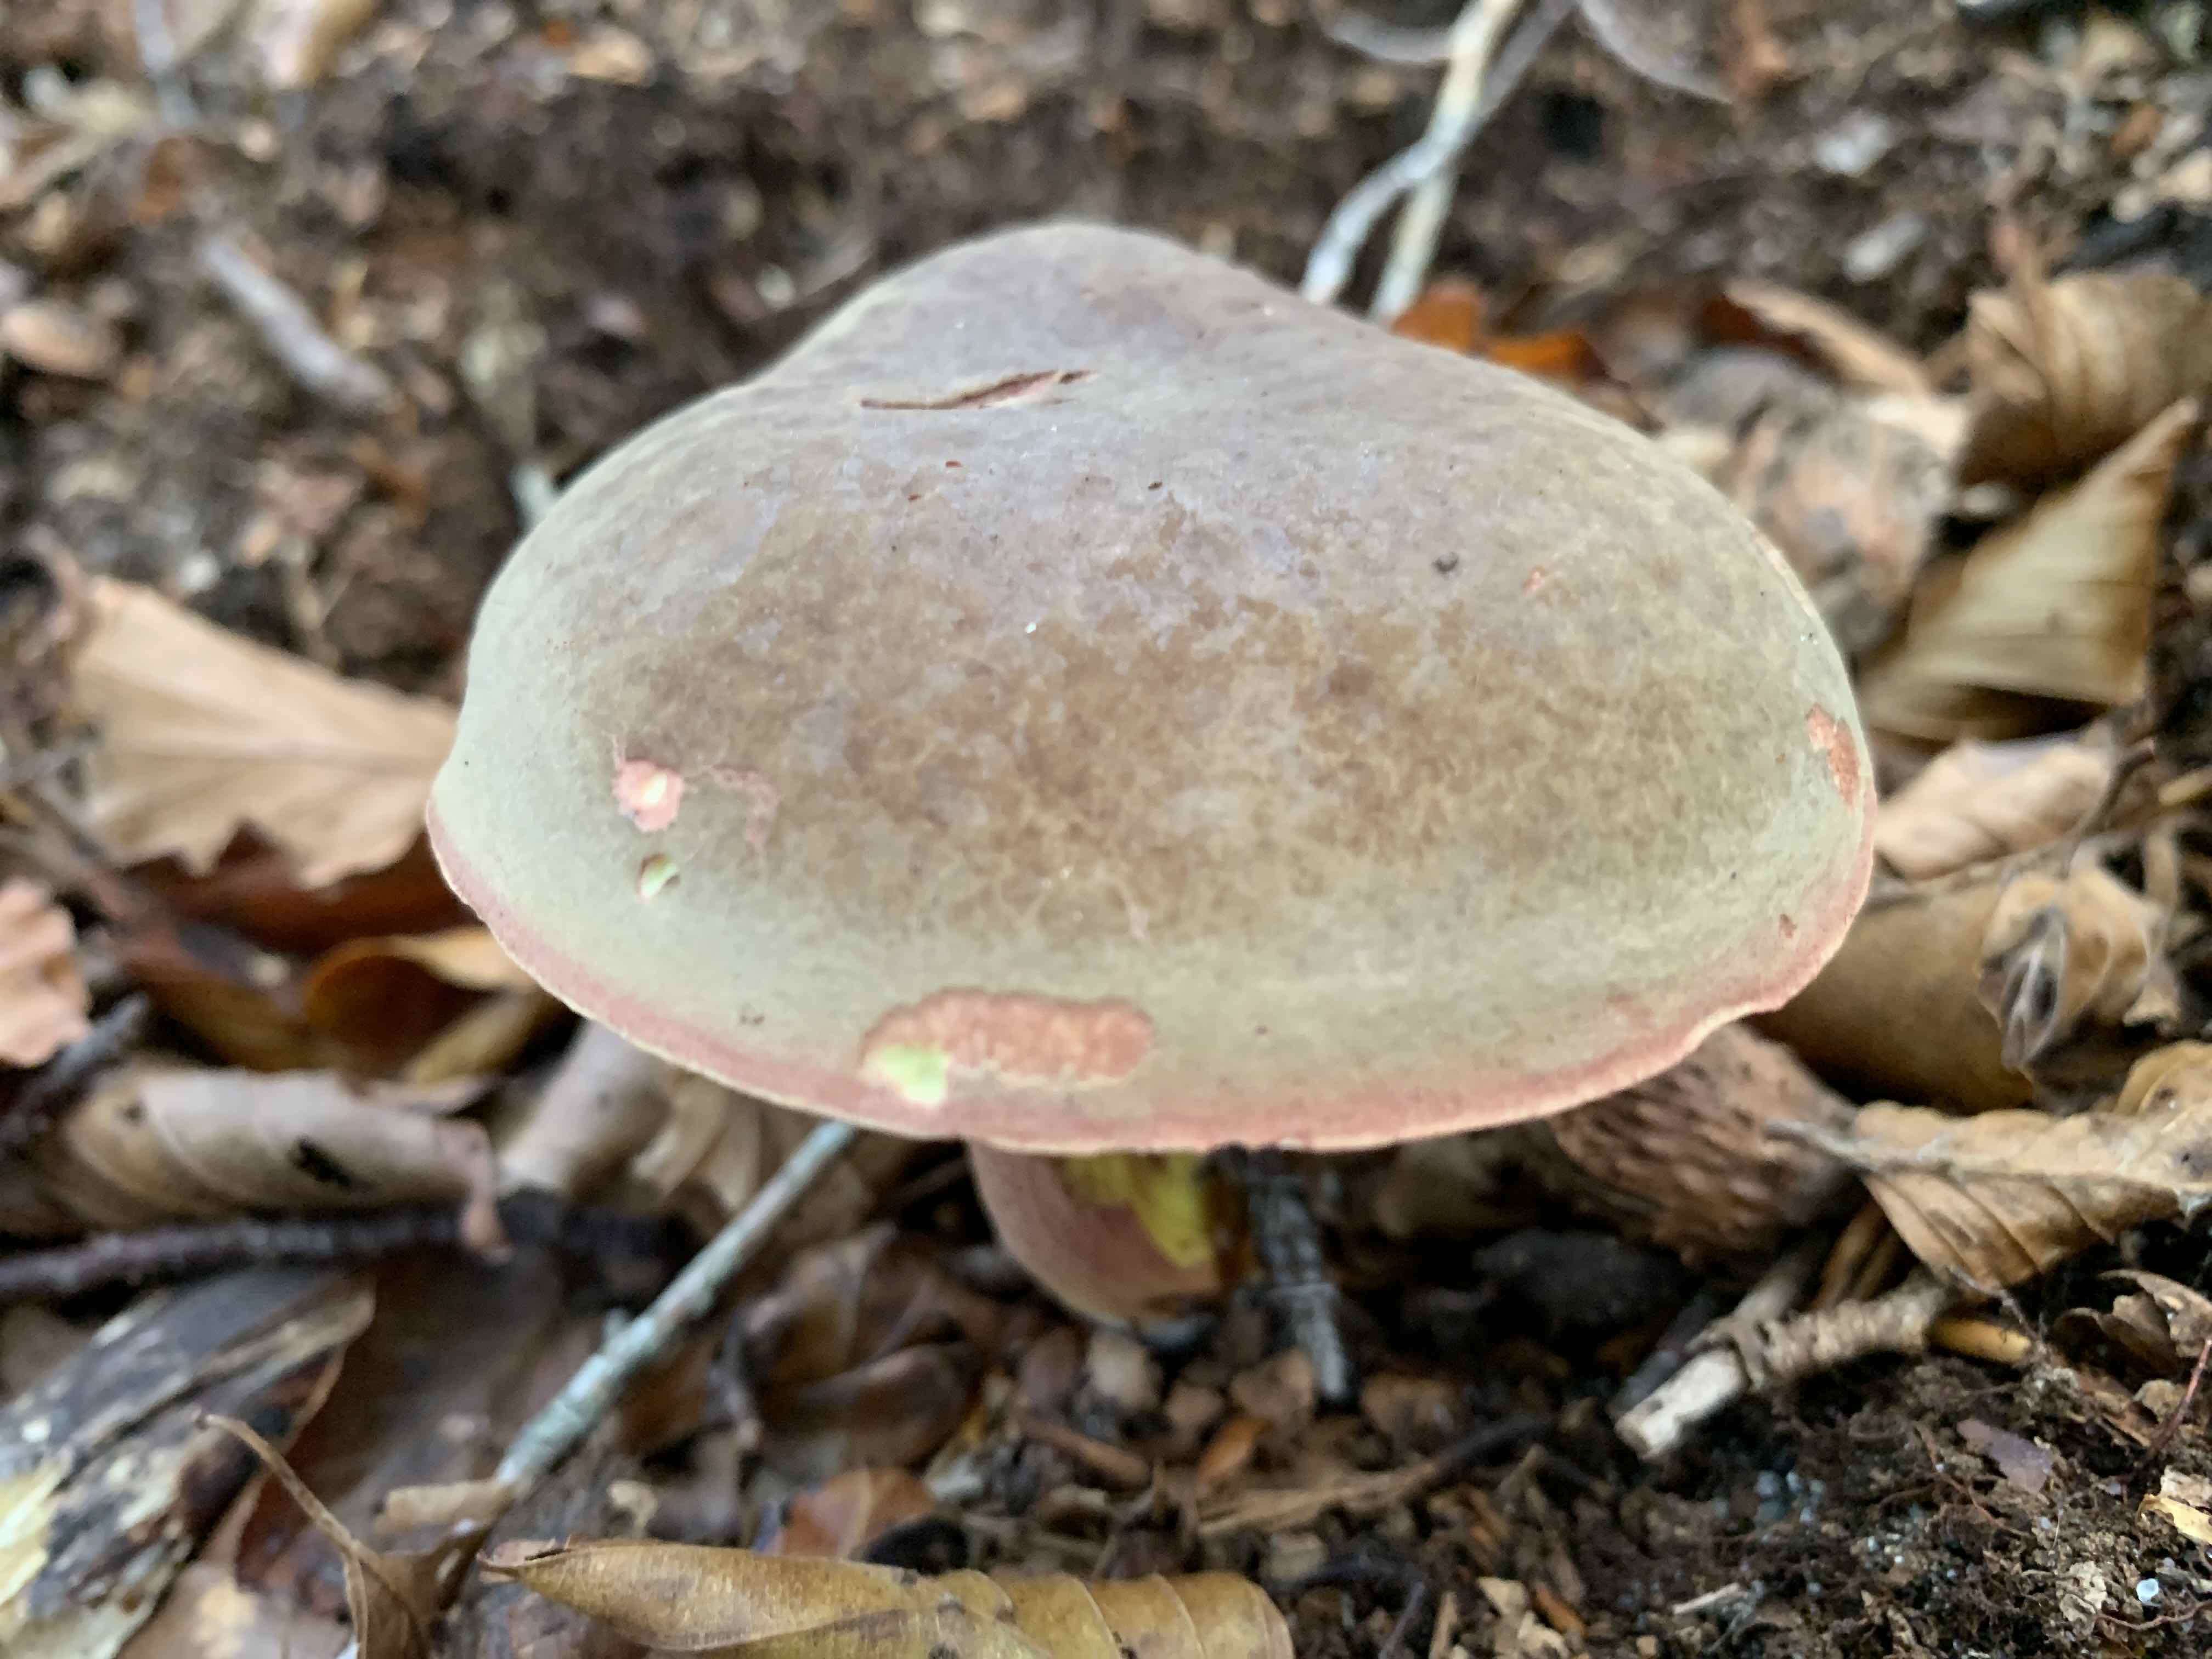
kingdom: Fungi
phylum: Basidiomycota
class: Agaricomycetes
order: Boletales
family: Boletaceae
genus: Xerocomellus
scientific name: Xerocomellus pruinatus
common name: dugget rørhat
